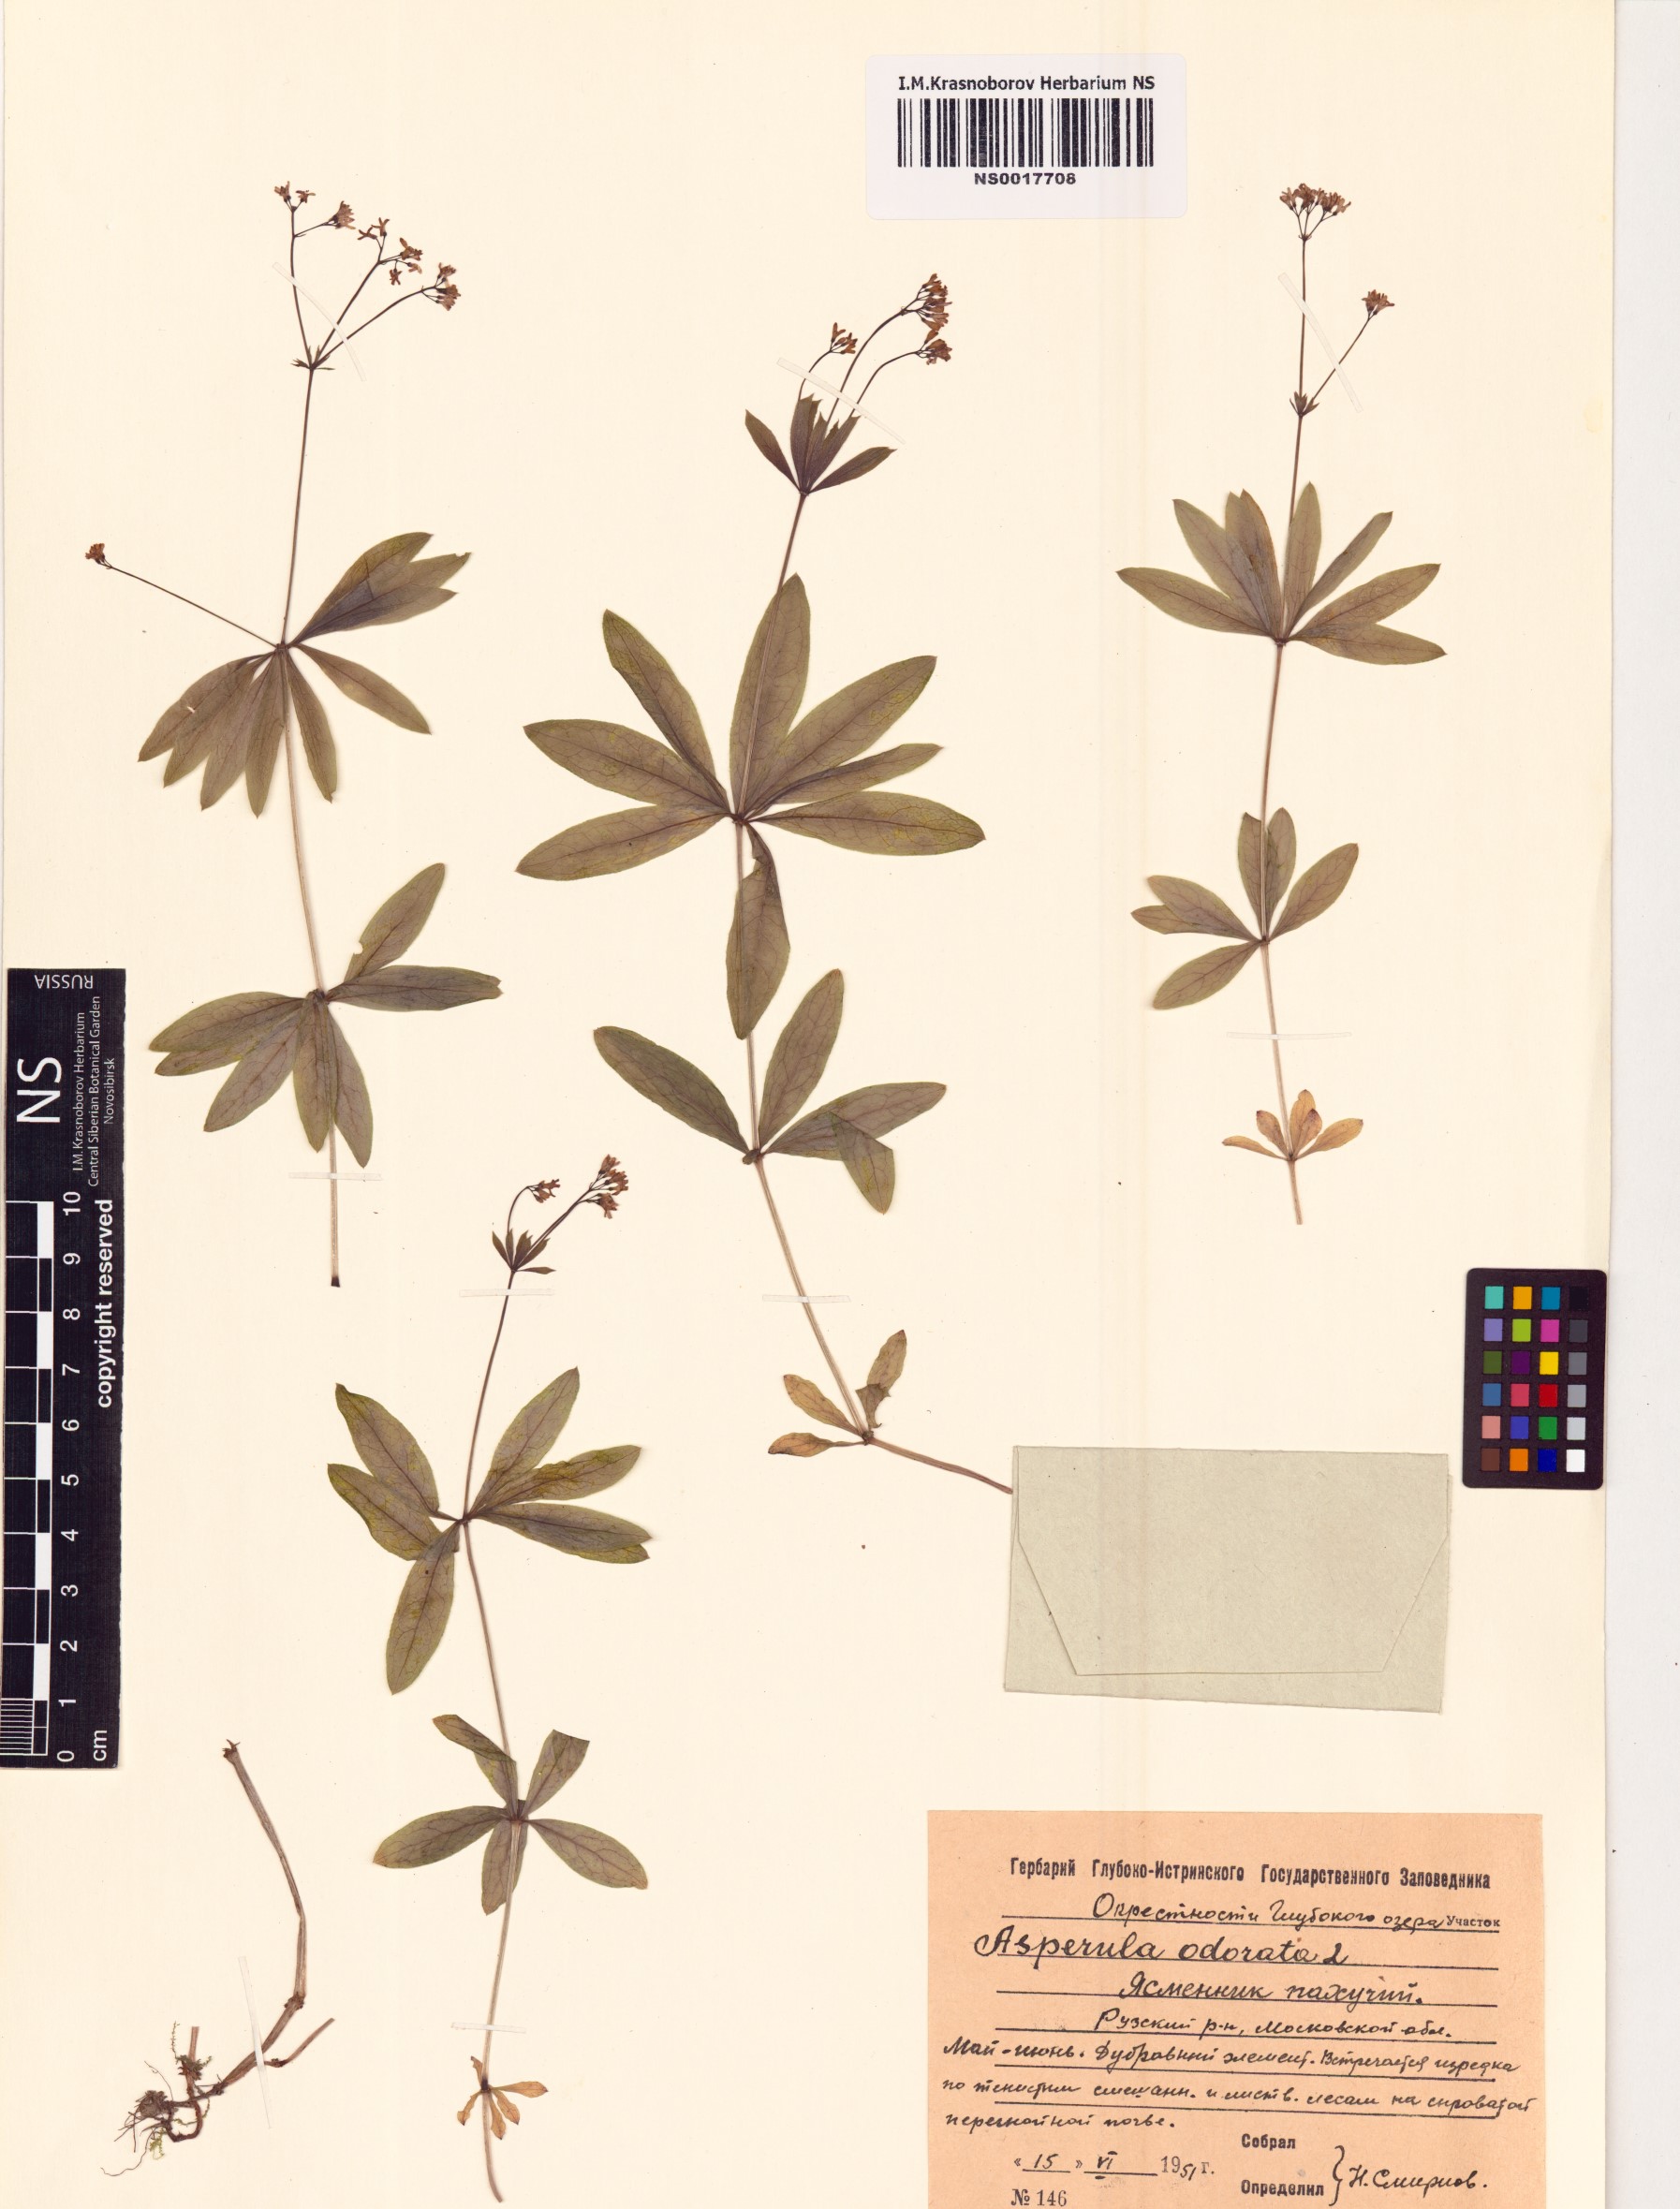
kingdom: Plantae
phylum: Tracheophyta
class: Magnoliopsida
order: Gentianales
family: Rubiaceae
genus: Galium
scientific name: Galium odoratum
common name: Sweet woodruff
